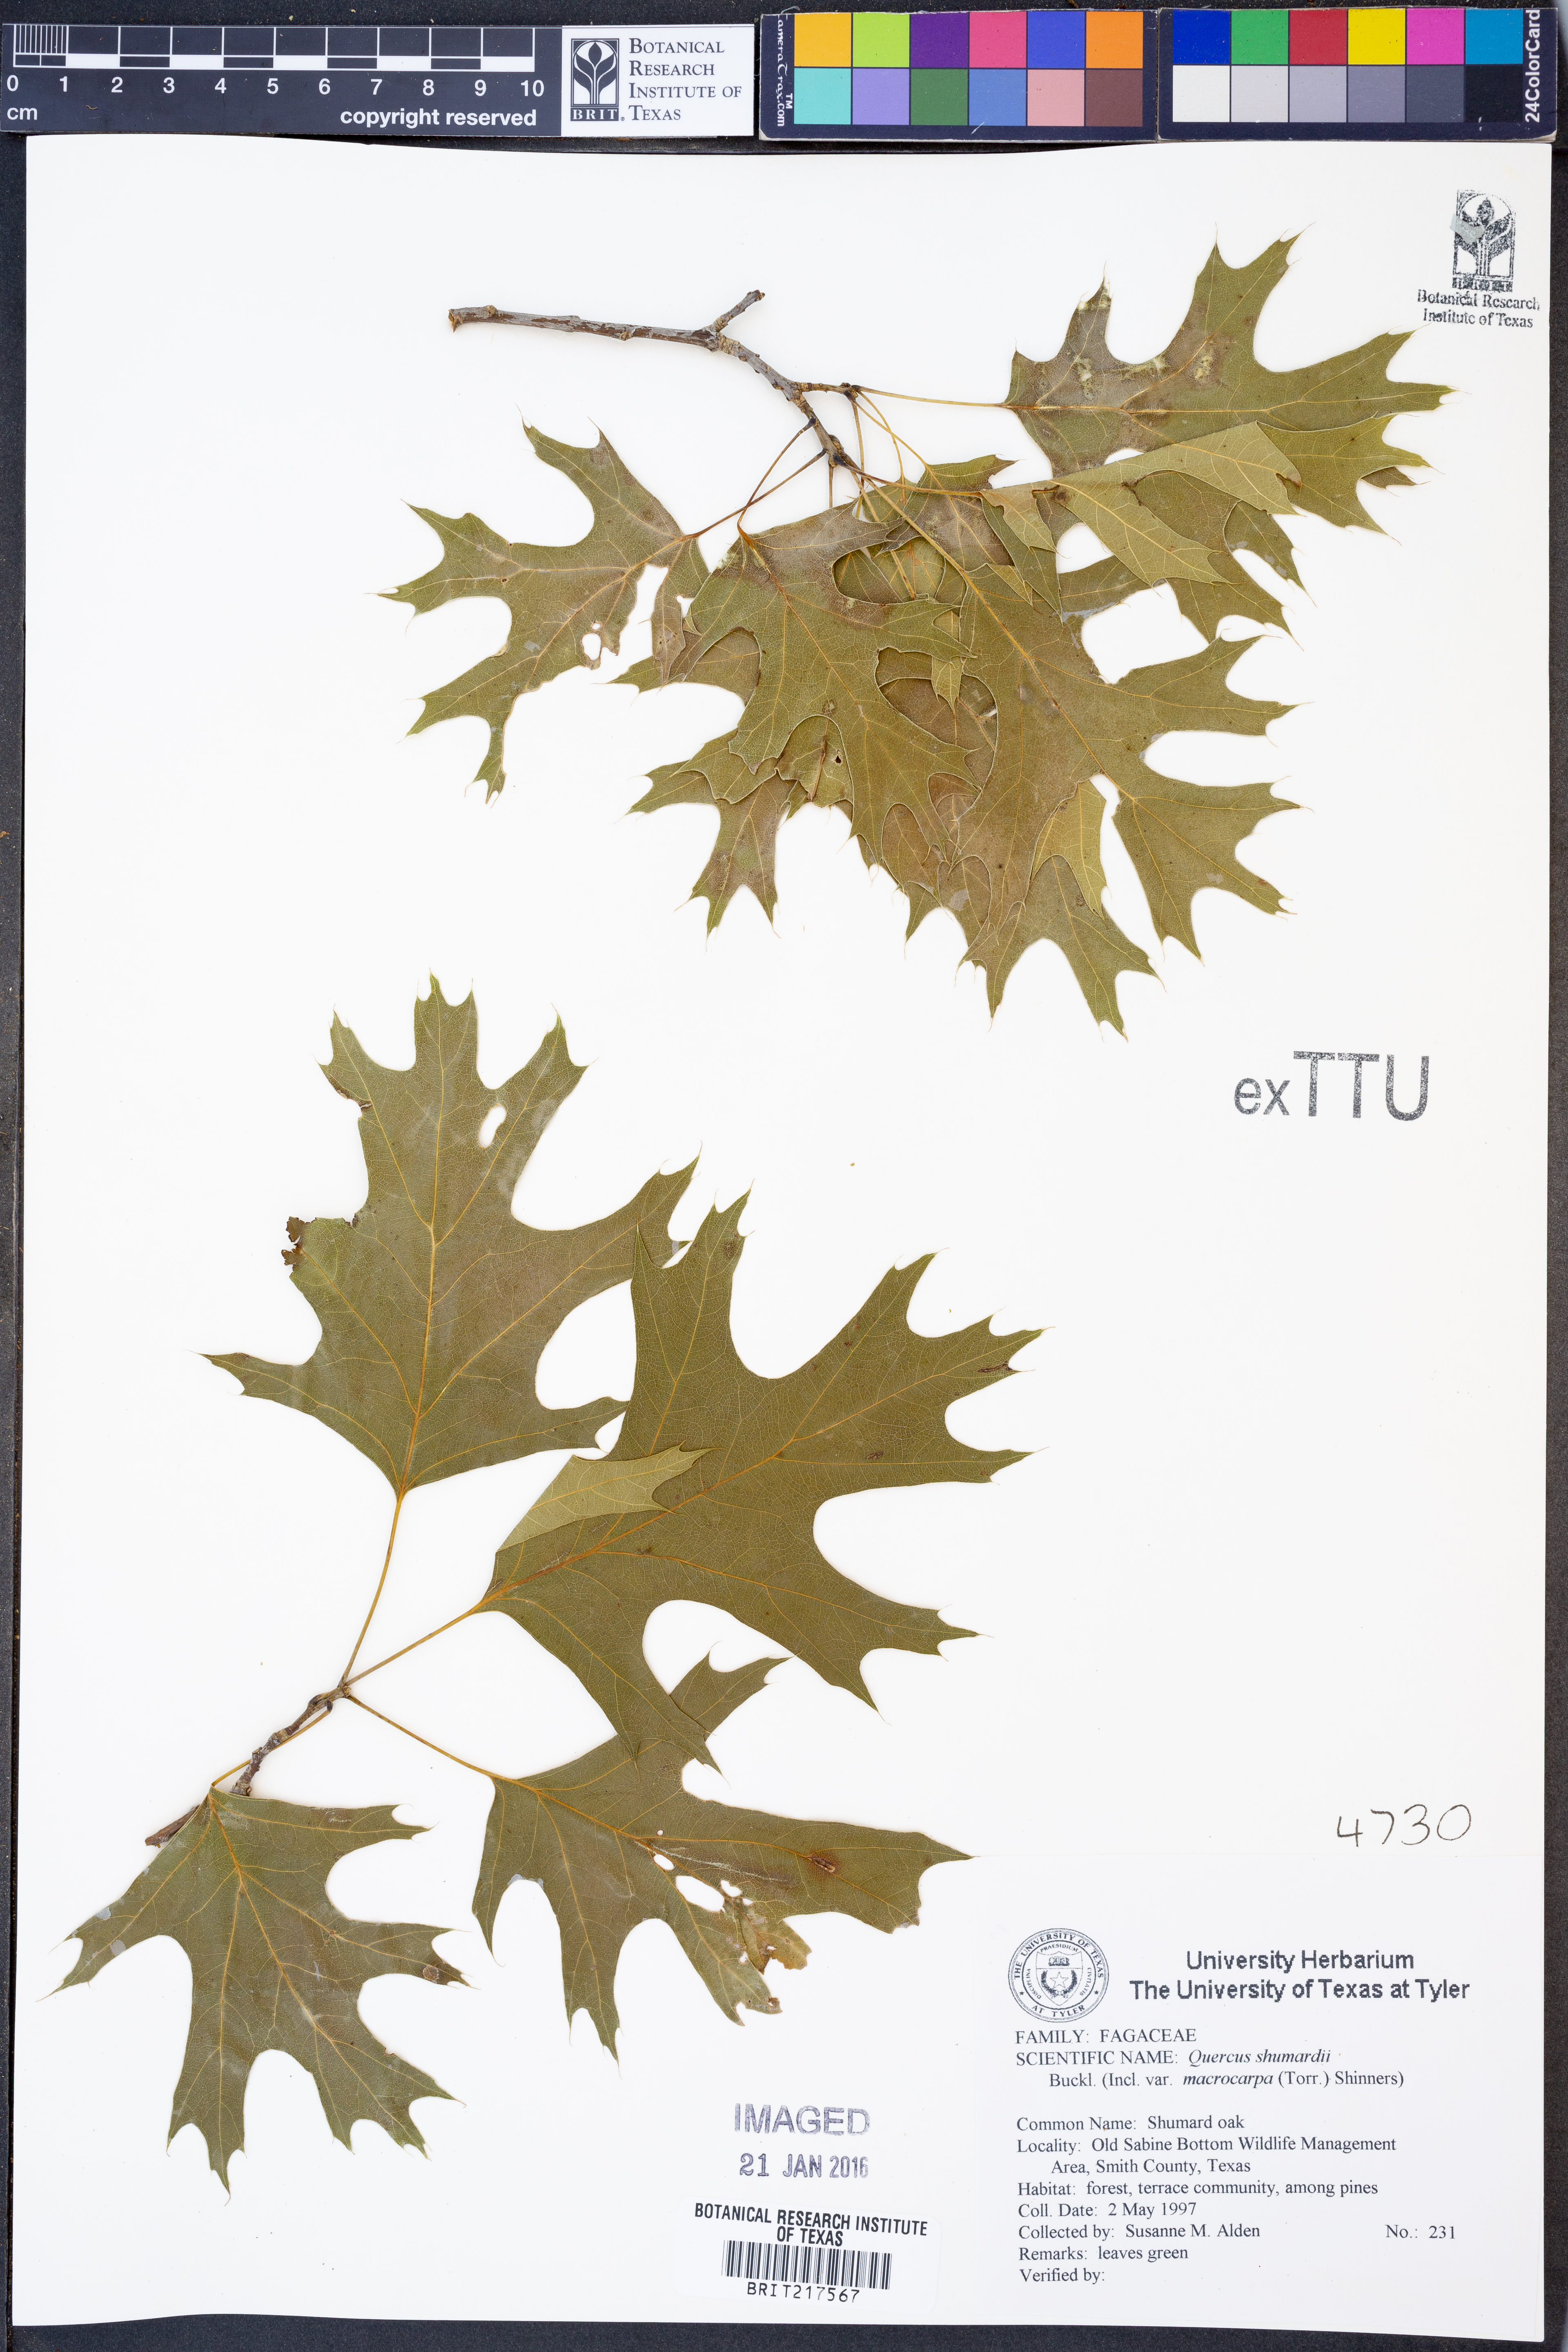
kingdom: Plantae
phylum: Tracheophyta
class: Magnoliopsida
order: Fagales
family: Fagaceae
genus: Quercus
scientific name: Quercus shumardii
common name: Shumard oak
